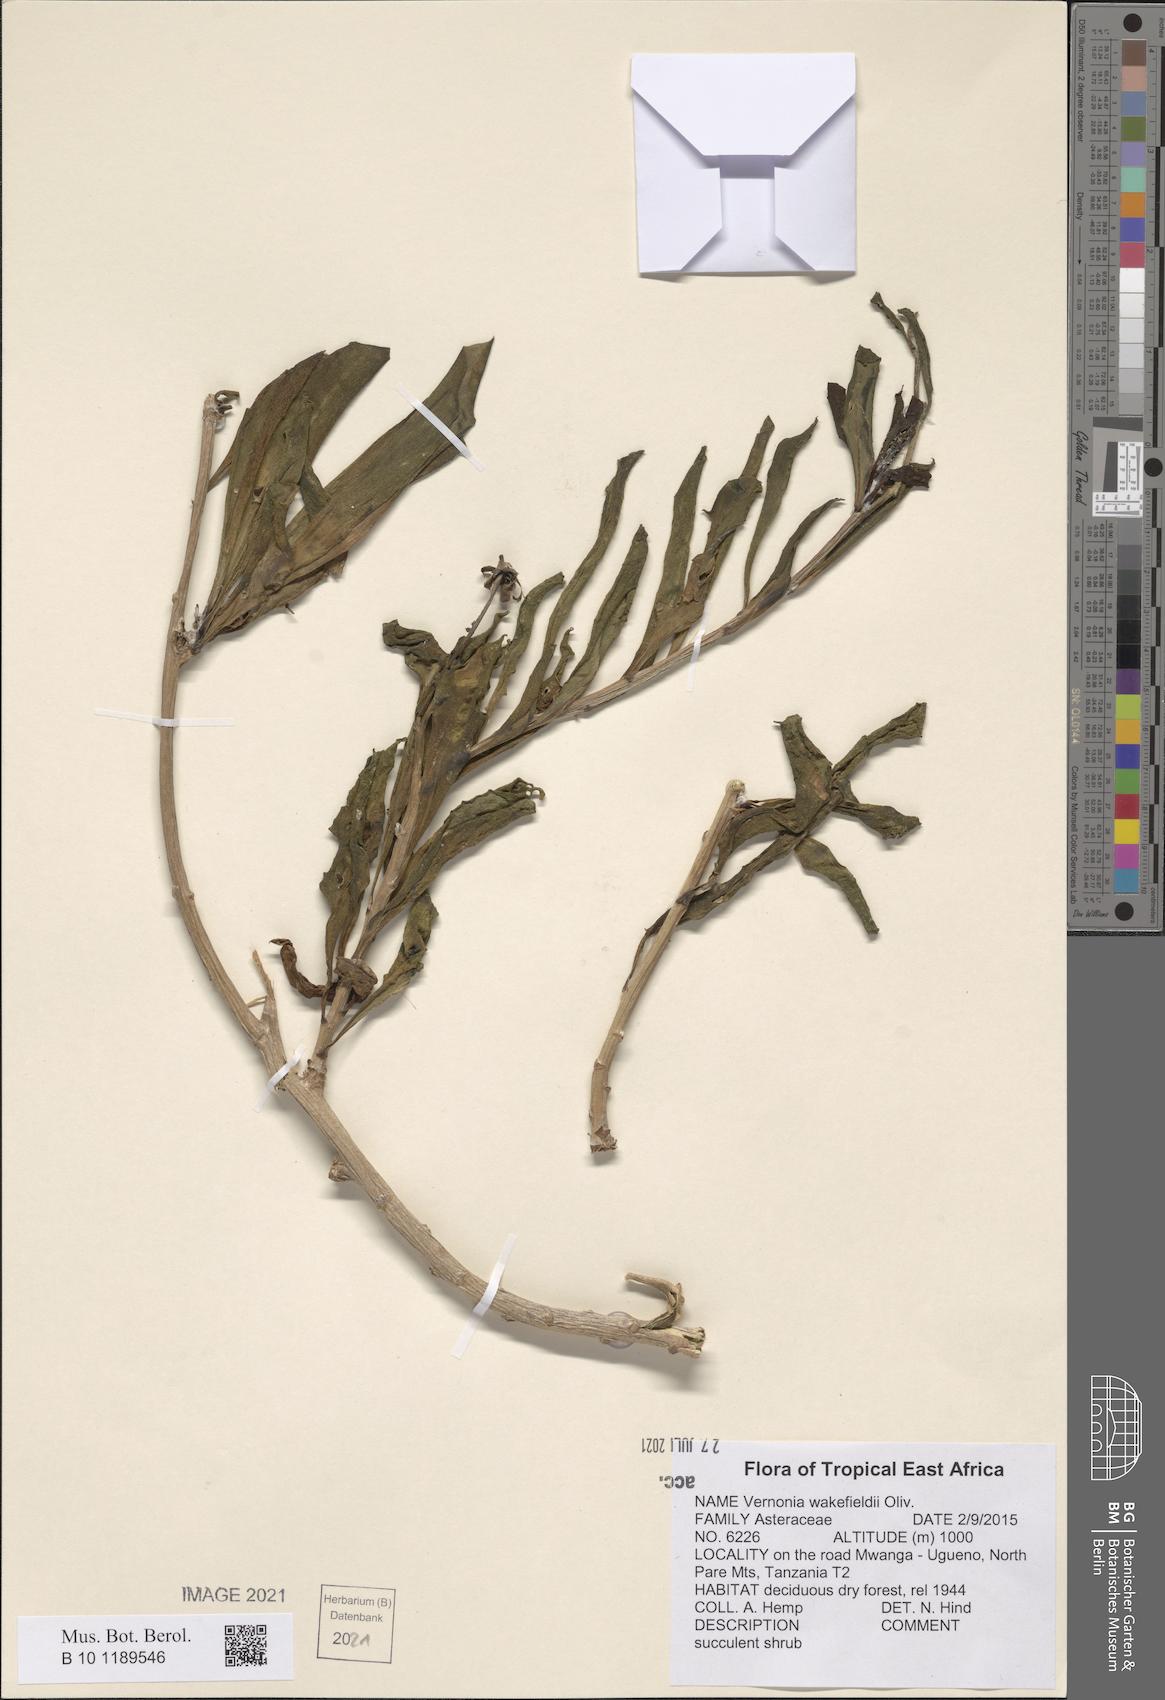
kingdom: Plantae
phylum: Tracheophyta
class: Magnoliopsida
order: Asterales
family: Asteraceae
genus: Vernonia
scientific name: Vernonia wakefieldii
